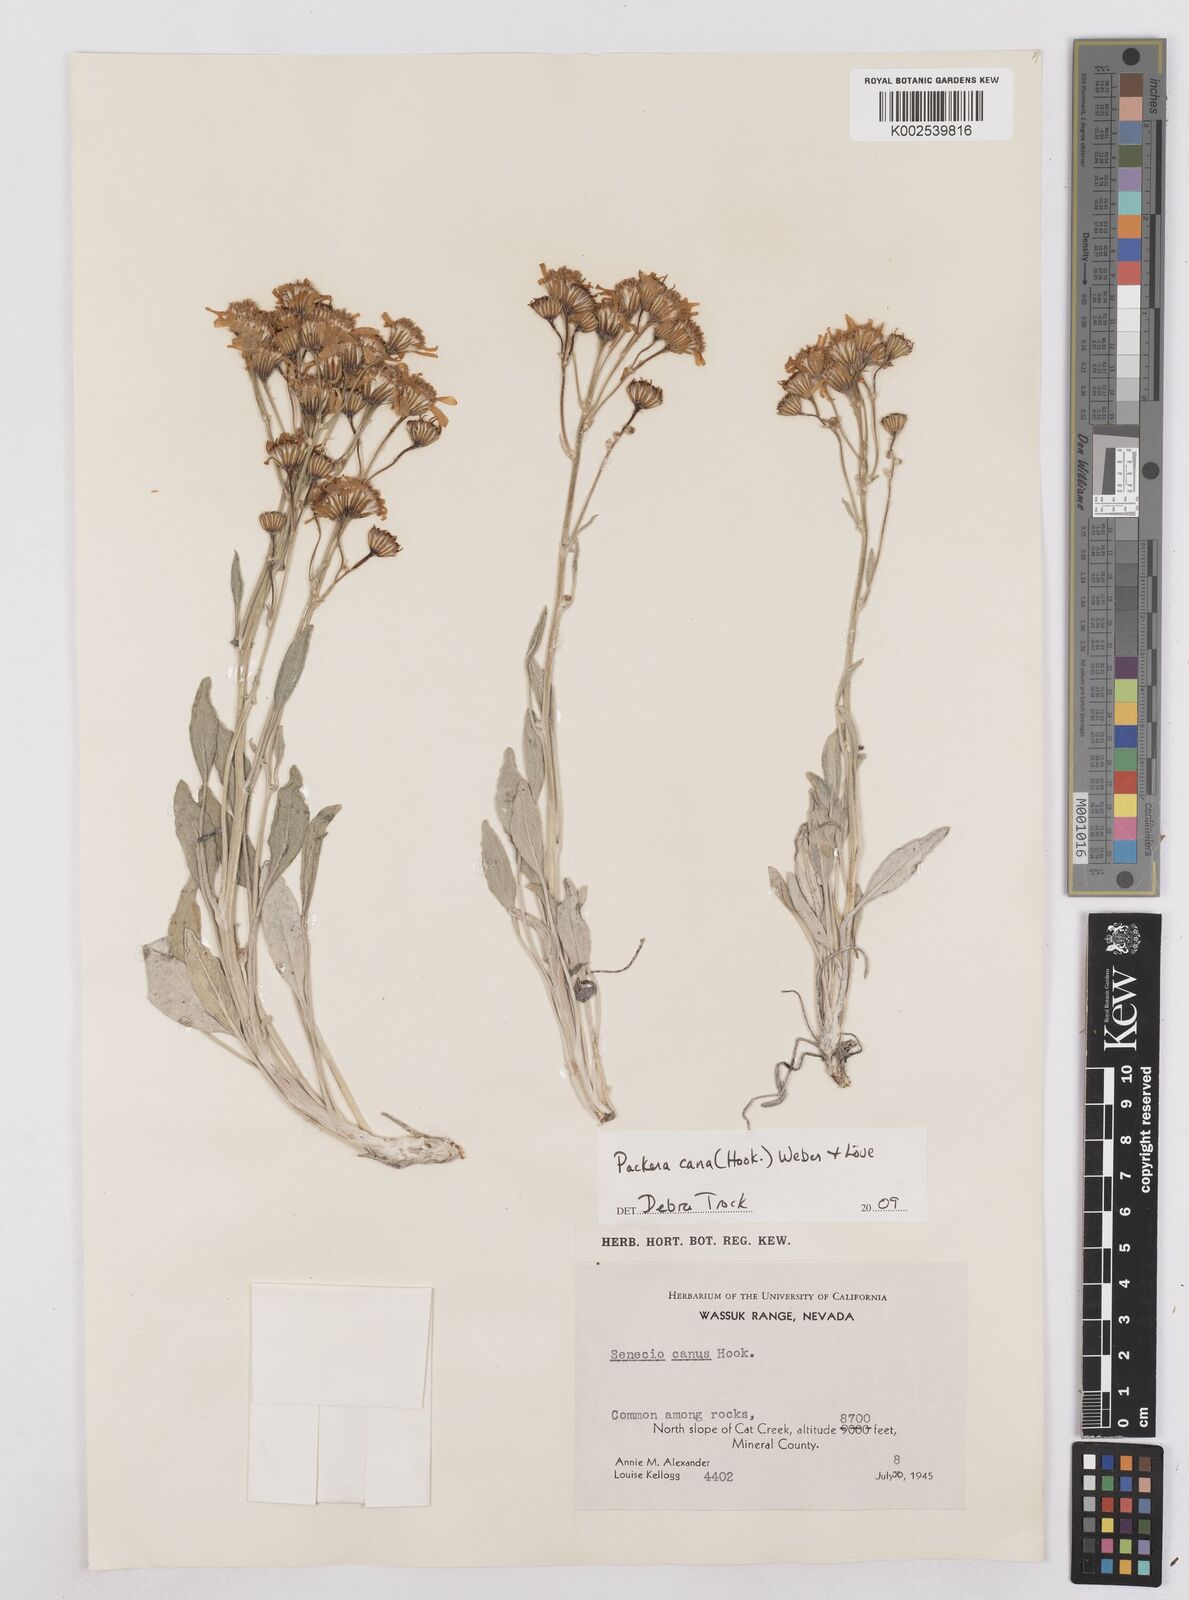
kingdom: Plantae
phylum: Tracheophyta
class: Magnoliopsida
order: Asterales
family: Asteraceae
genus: Packera
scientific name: Packera cana
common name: Woolly groundsel
